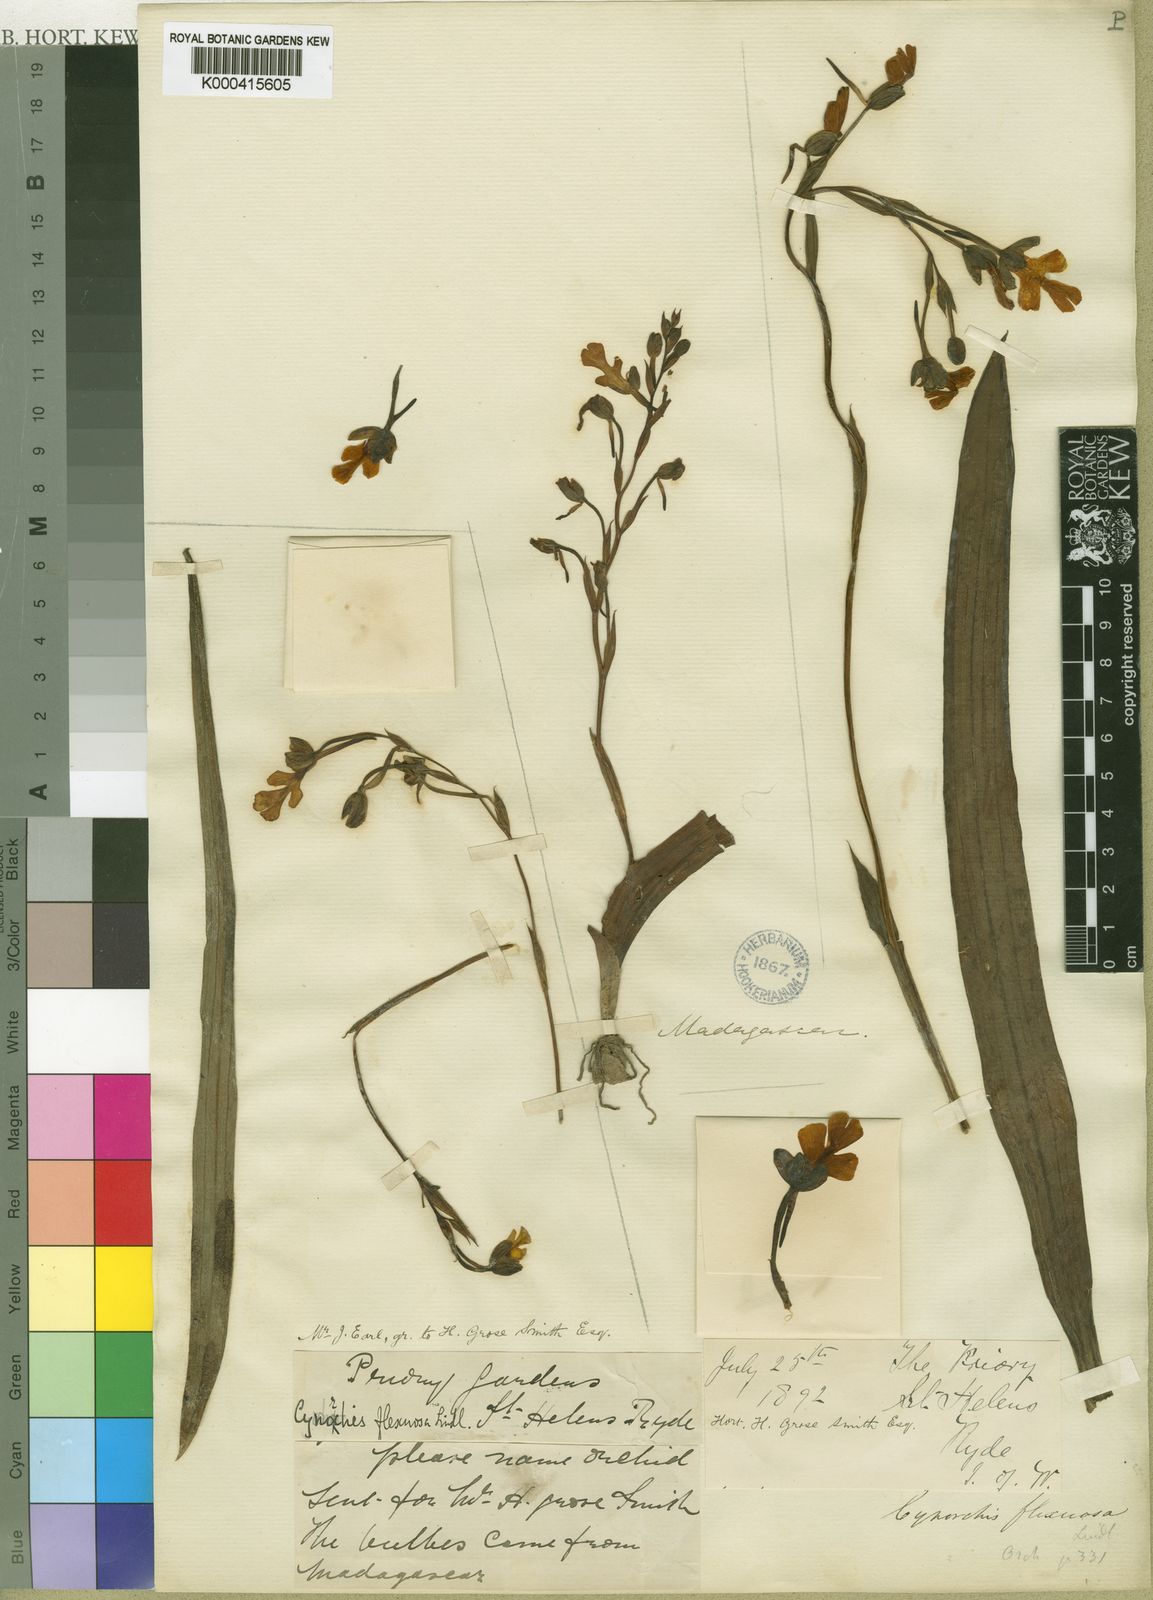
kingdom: Plantae
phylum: Tracheophyta
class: Liliopsida
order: Asparagales
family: Orchidaceae
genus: Cynorkis
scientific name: Cynorkis flexuosa
